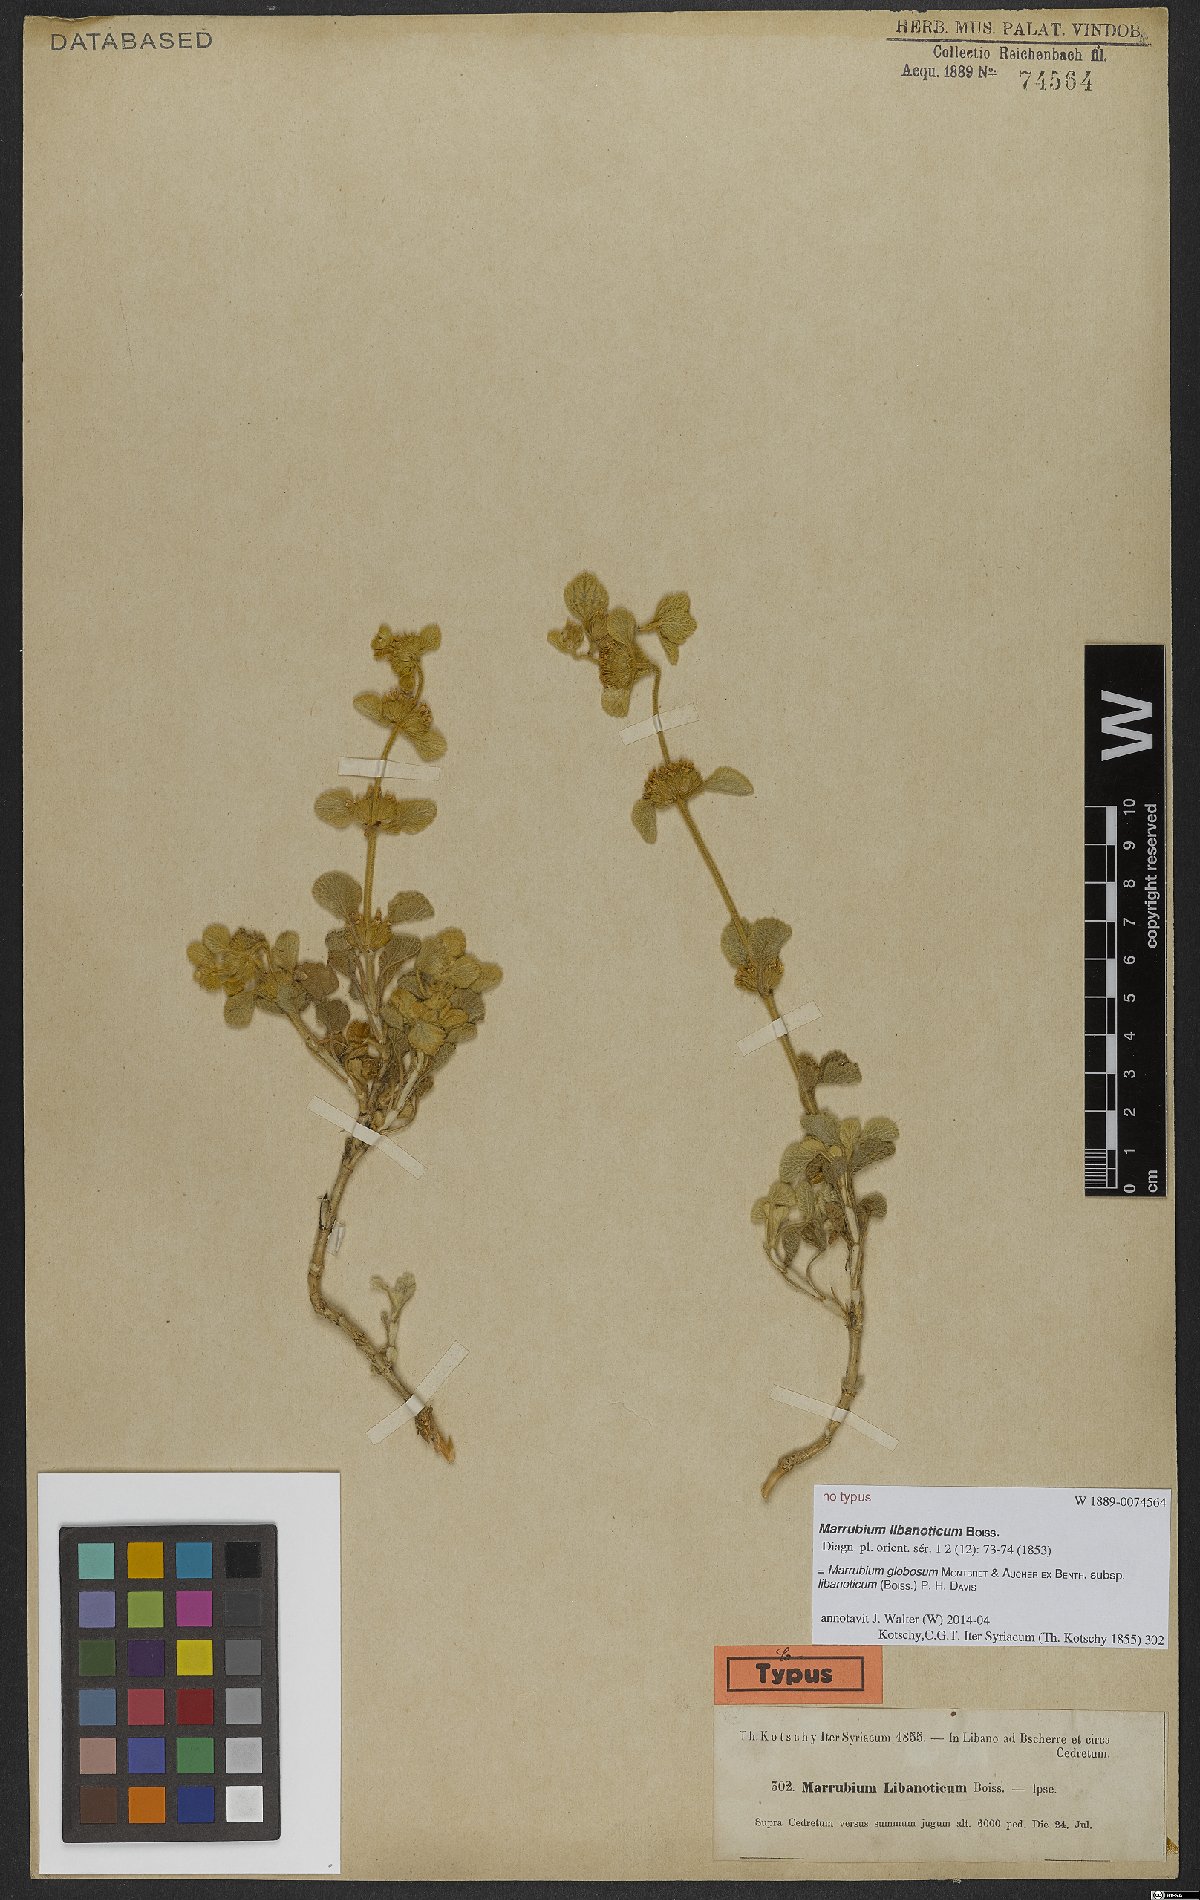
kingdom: Plantae
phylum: Tracheophyta
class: Magnoliopsida
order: Lamiales
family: Lamiaceae
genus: Marrubium
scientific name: Marrubium globosum
